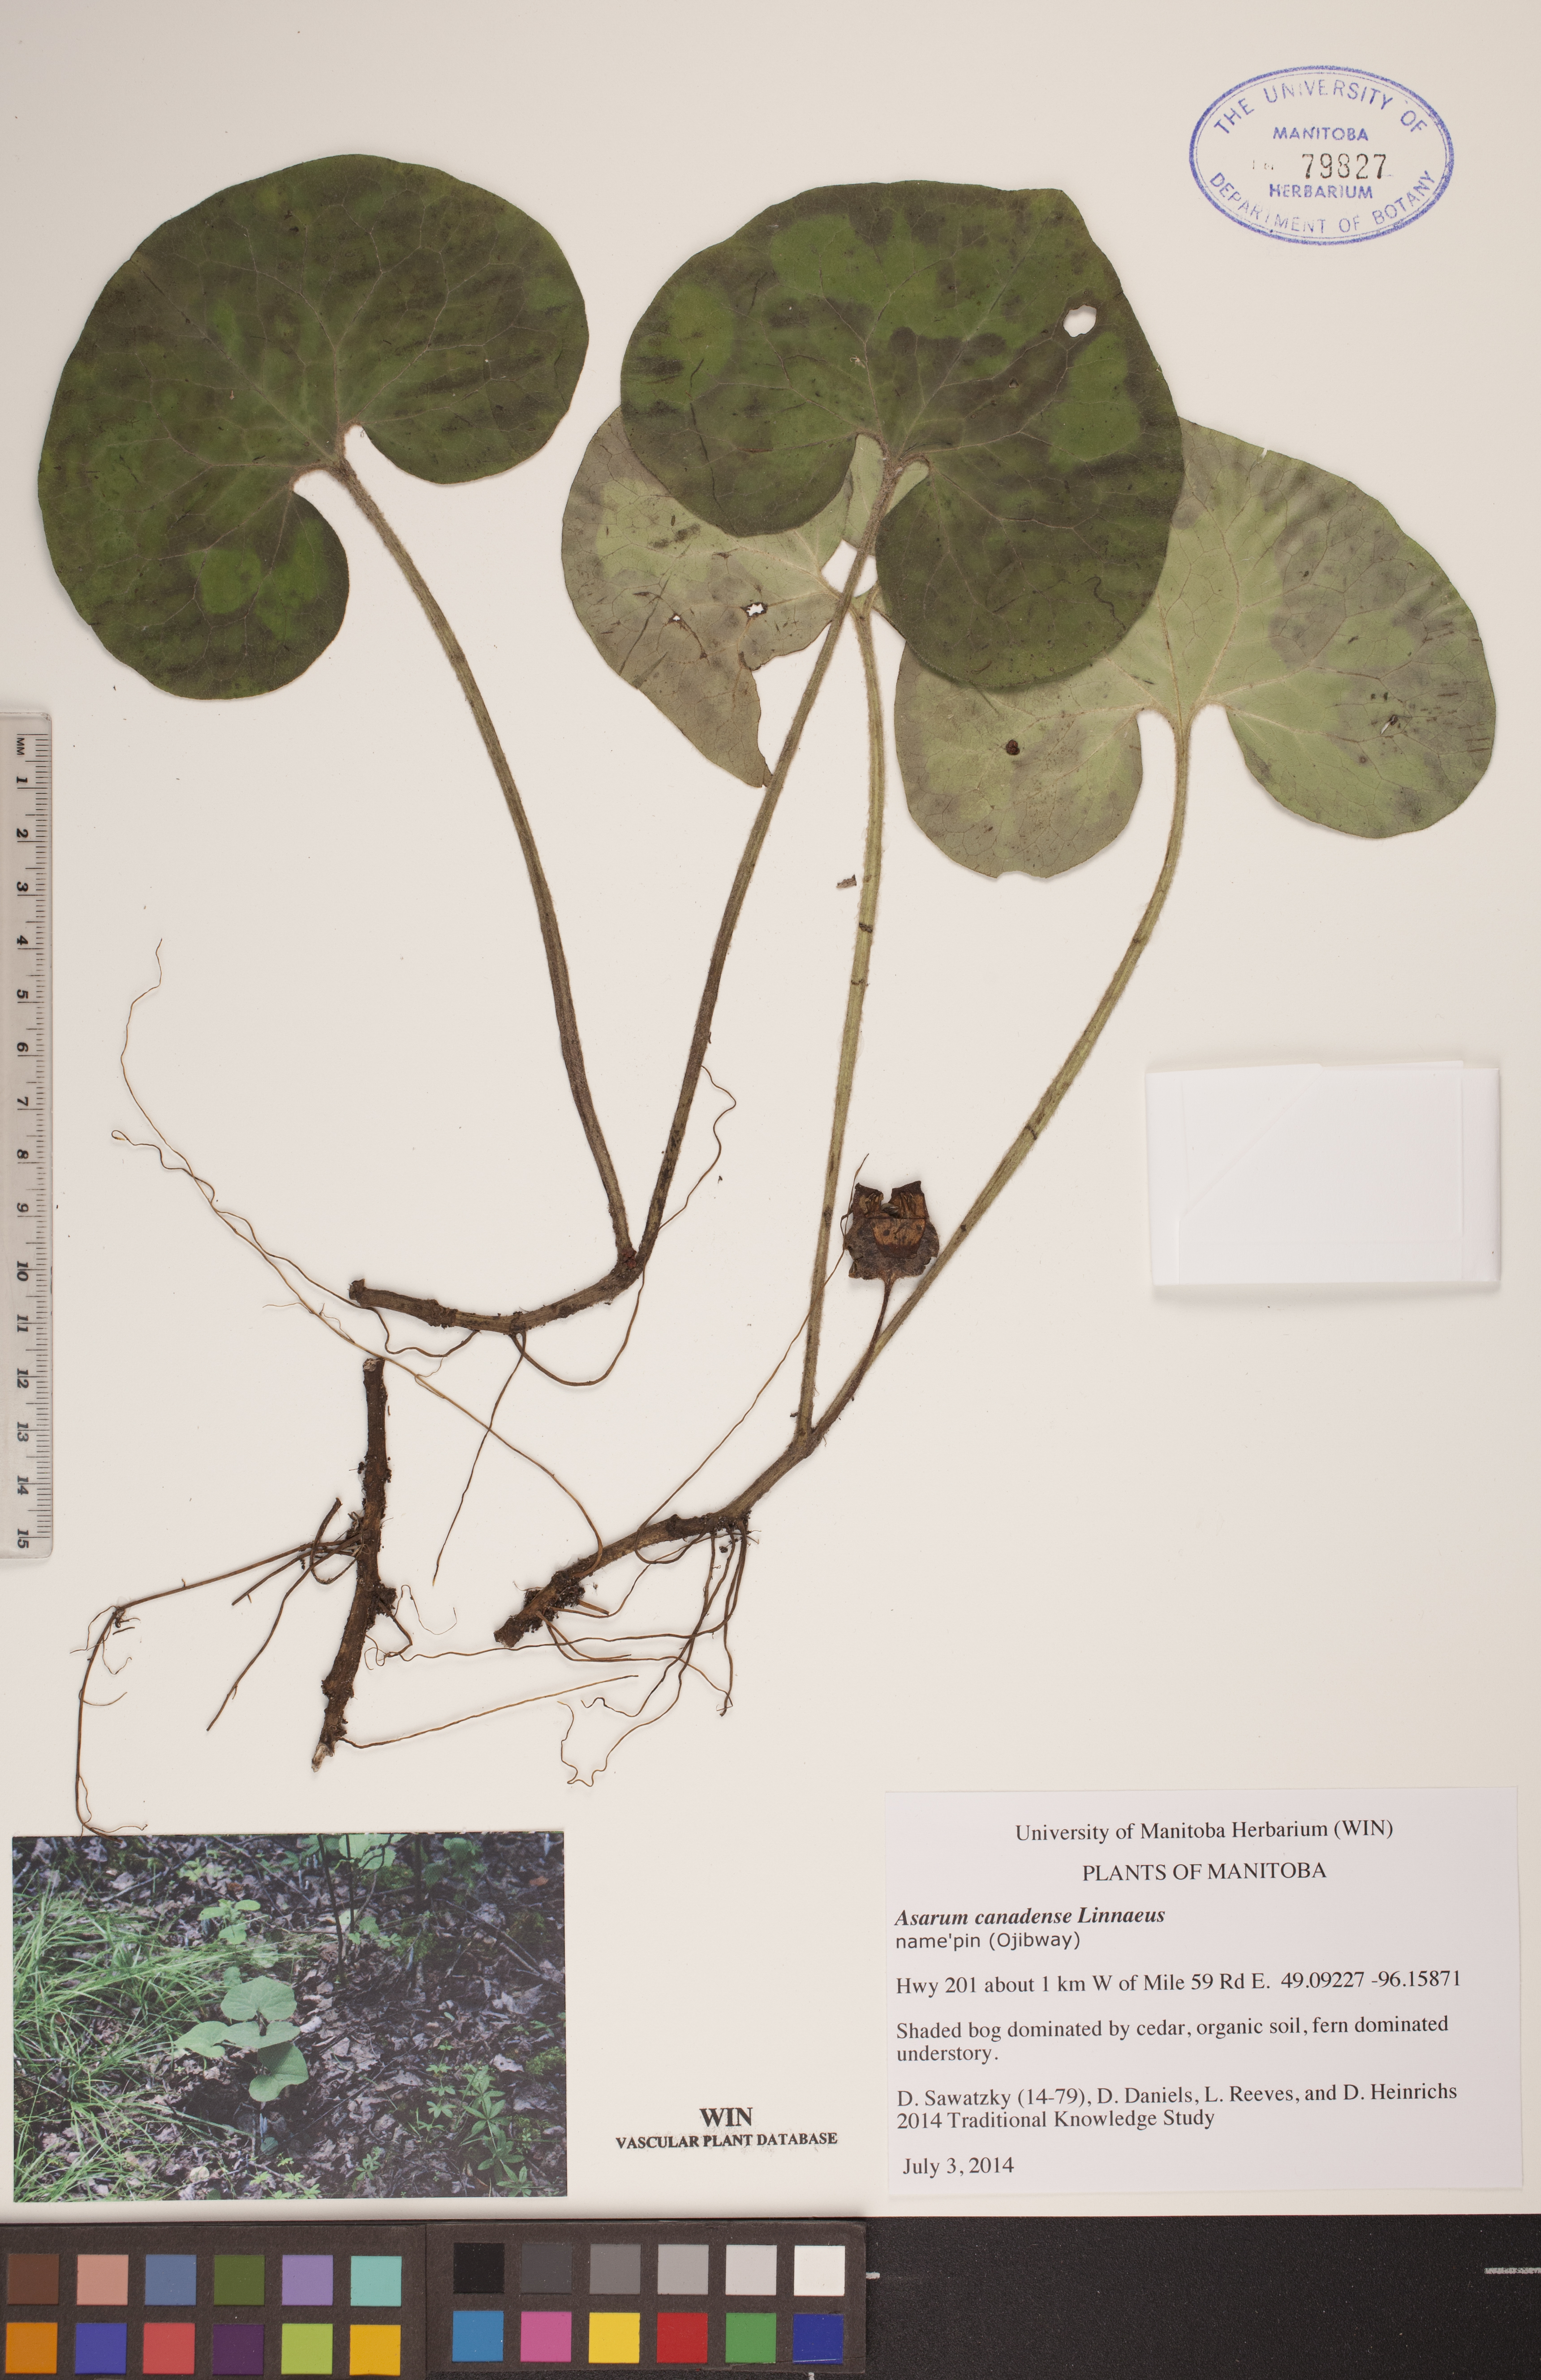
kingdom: Plantae
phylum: Tracheophyta
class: Magnoliopsida
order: Piperales
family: Aristolochiaceae
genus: Asarum
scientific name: Asarum canadense
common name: Wild ginger
